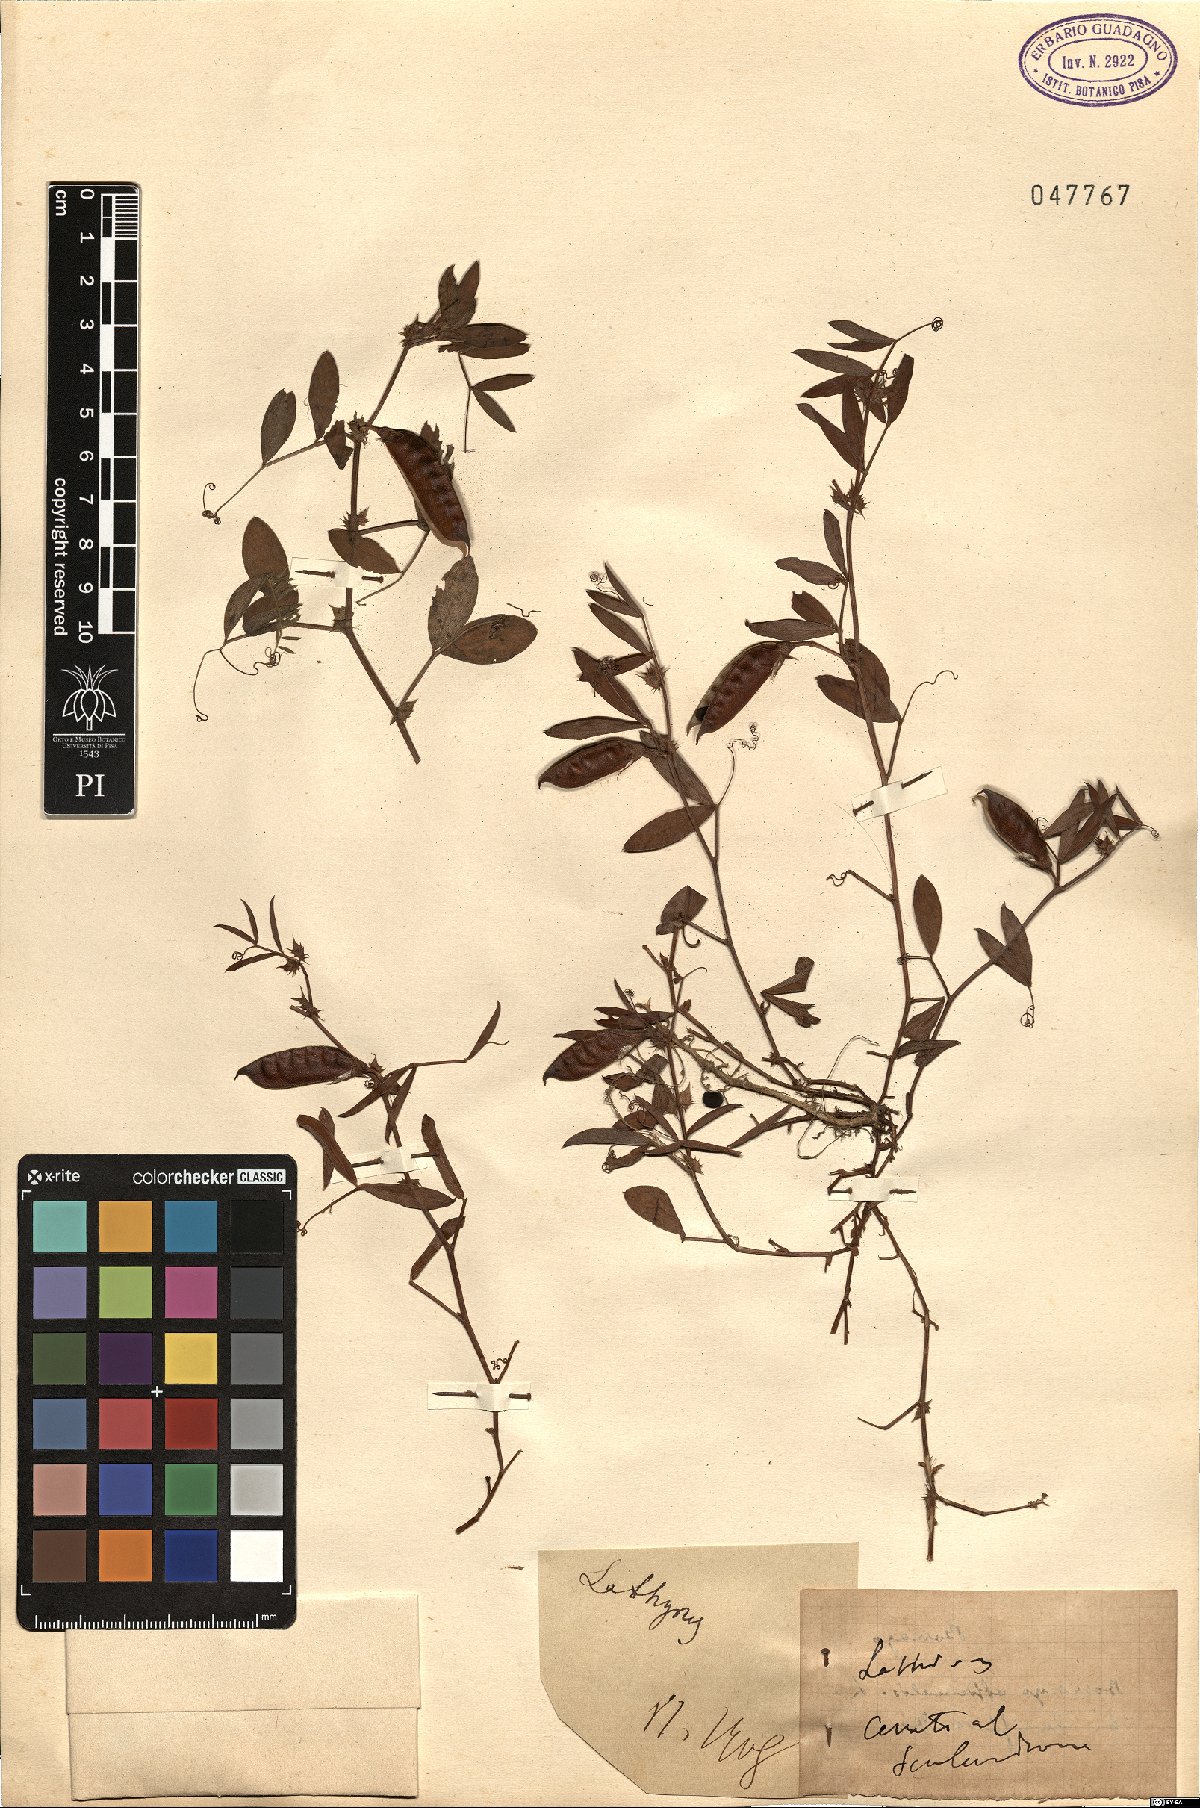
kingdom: Plantae
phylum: Tracheophyta
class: Magnoliopsida
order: Fabales
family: Fabaceae
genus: Lathyrus
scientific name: Lathyrus
